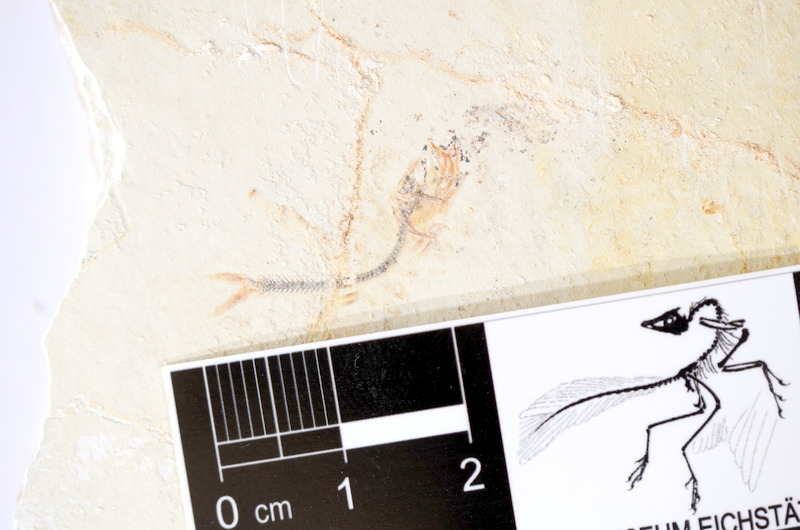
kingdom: Animalia
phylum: Chordata
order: Salmoniformes
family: Orthogonikleithridae
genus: Orthogonikleithrus
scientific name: Orthogonikleithrus hoelli
